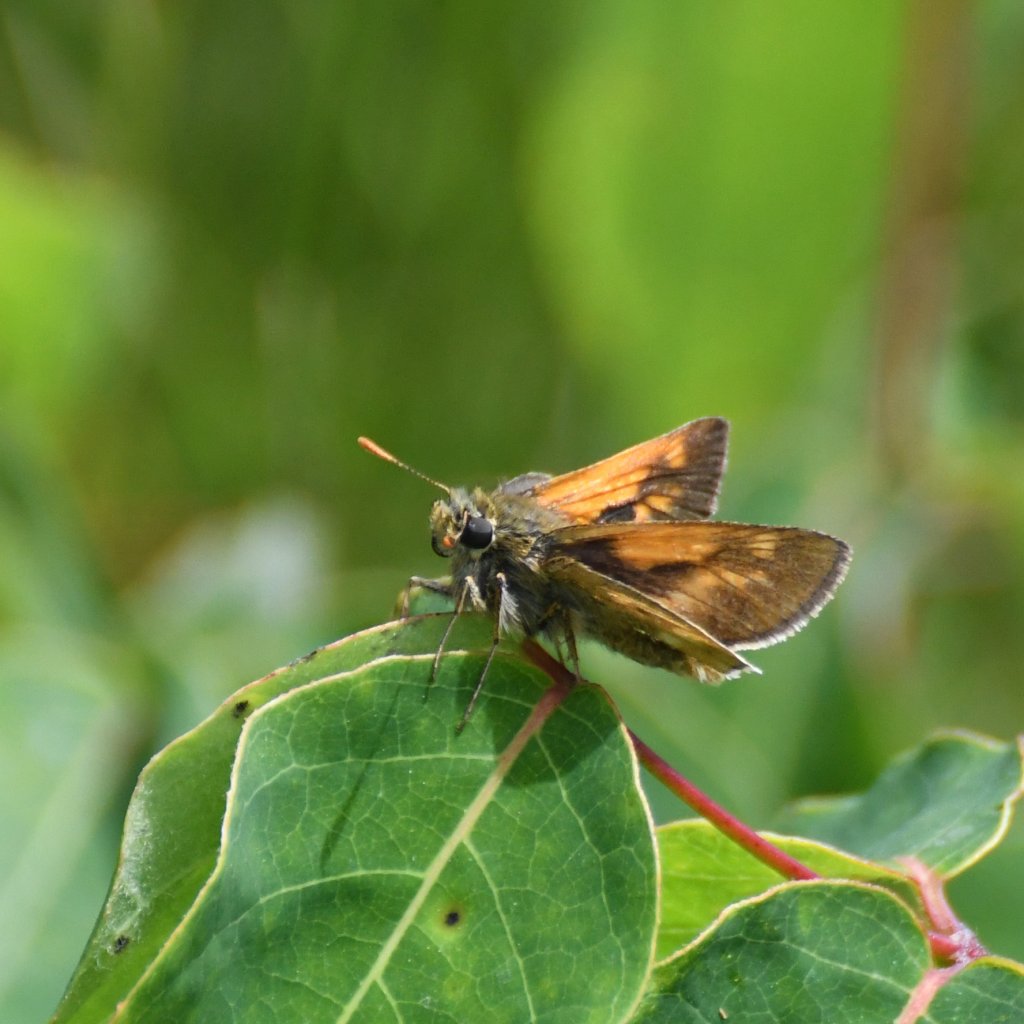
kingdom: Animalia
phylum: Arthropoda
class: Insecta
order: Lepidoptera
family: Hesperiidae
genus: Polites
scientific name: Polites
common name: Long Dash Skipper
